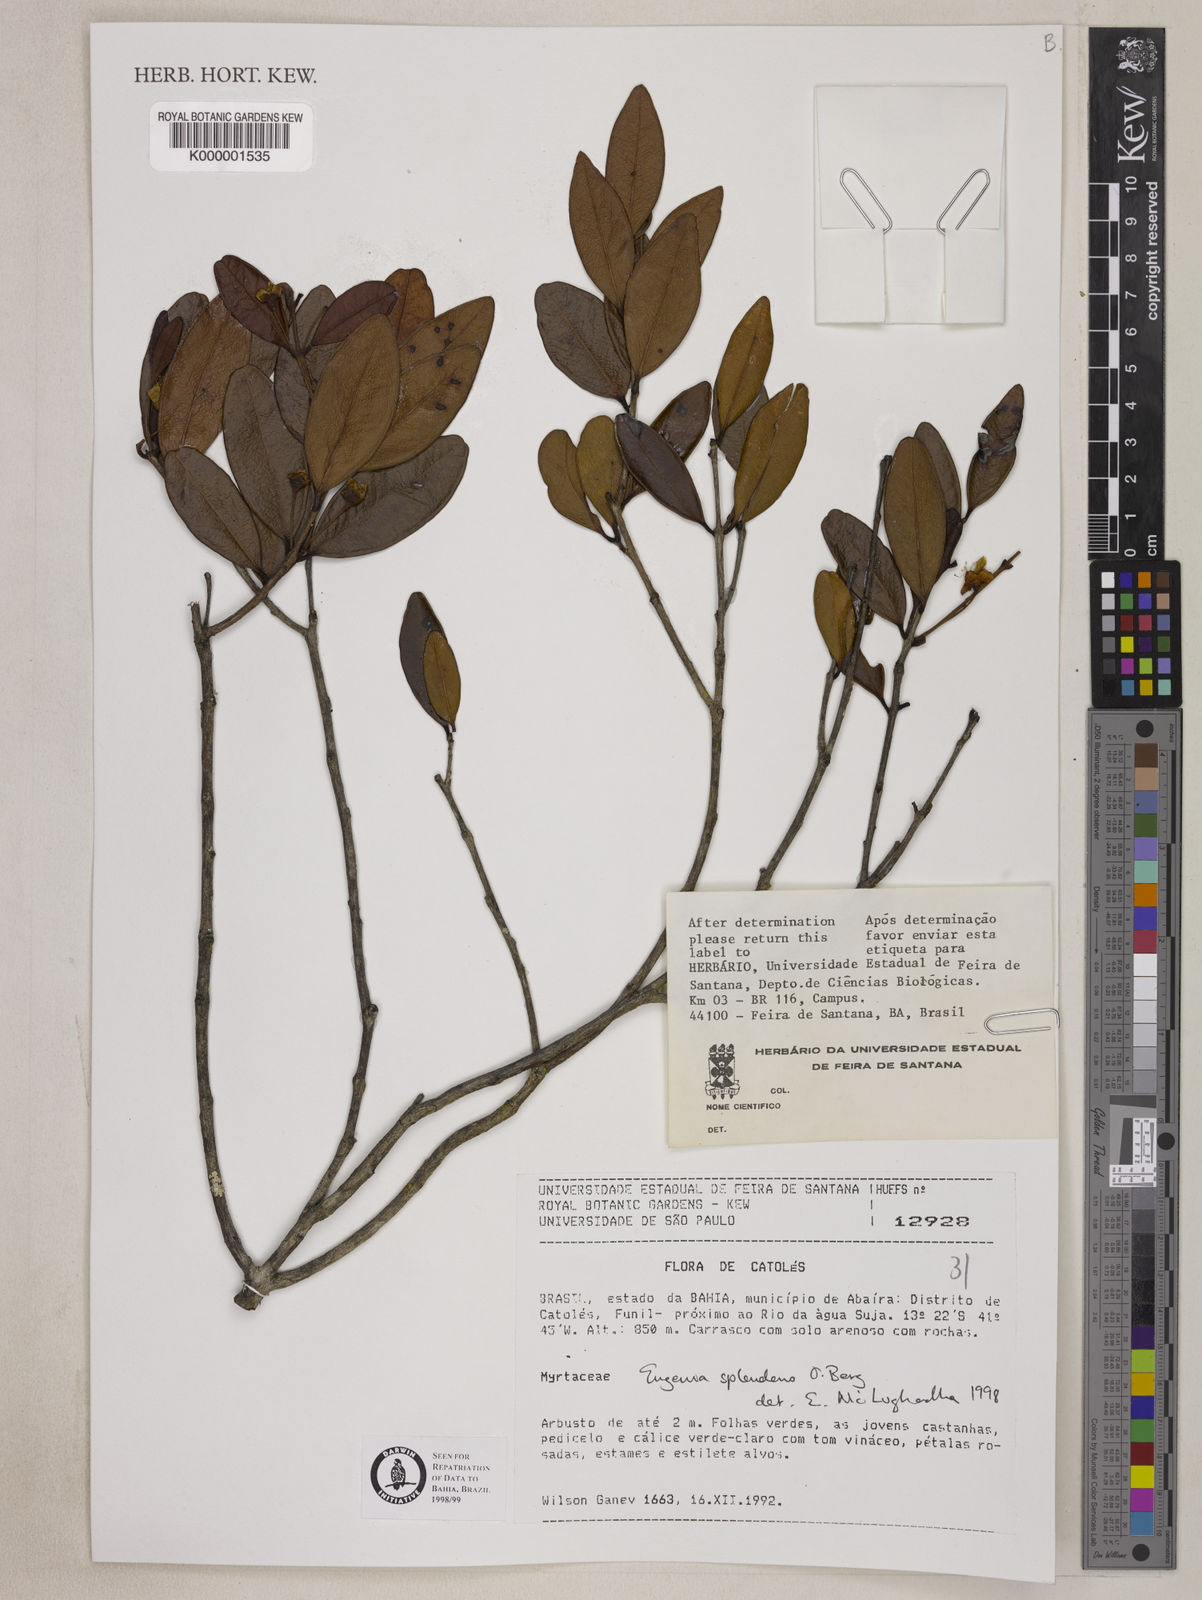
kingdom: Plantae
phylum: Tracheophyta
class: Magnoliopsida
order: Myrtales
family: Myrtaceae
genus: Eugenia
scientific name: Eugenia splendens
